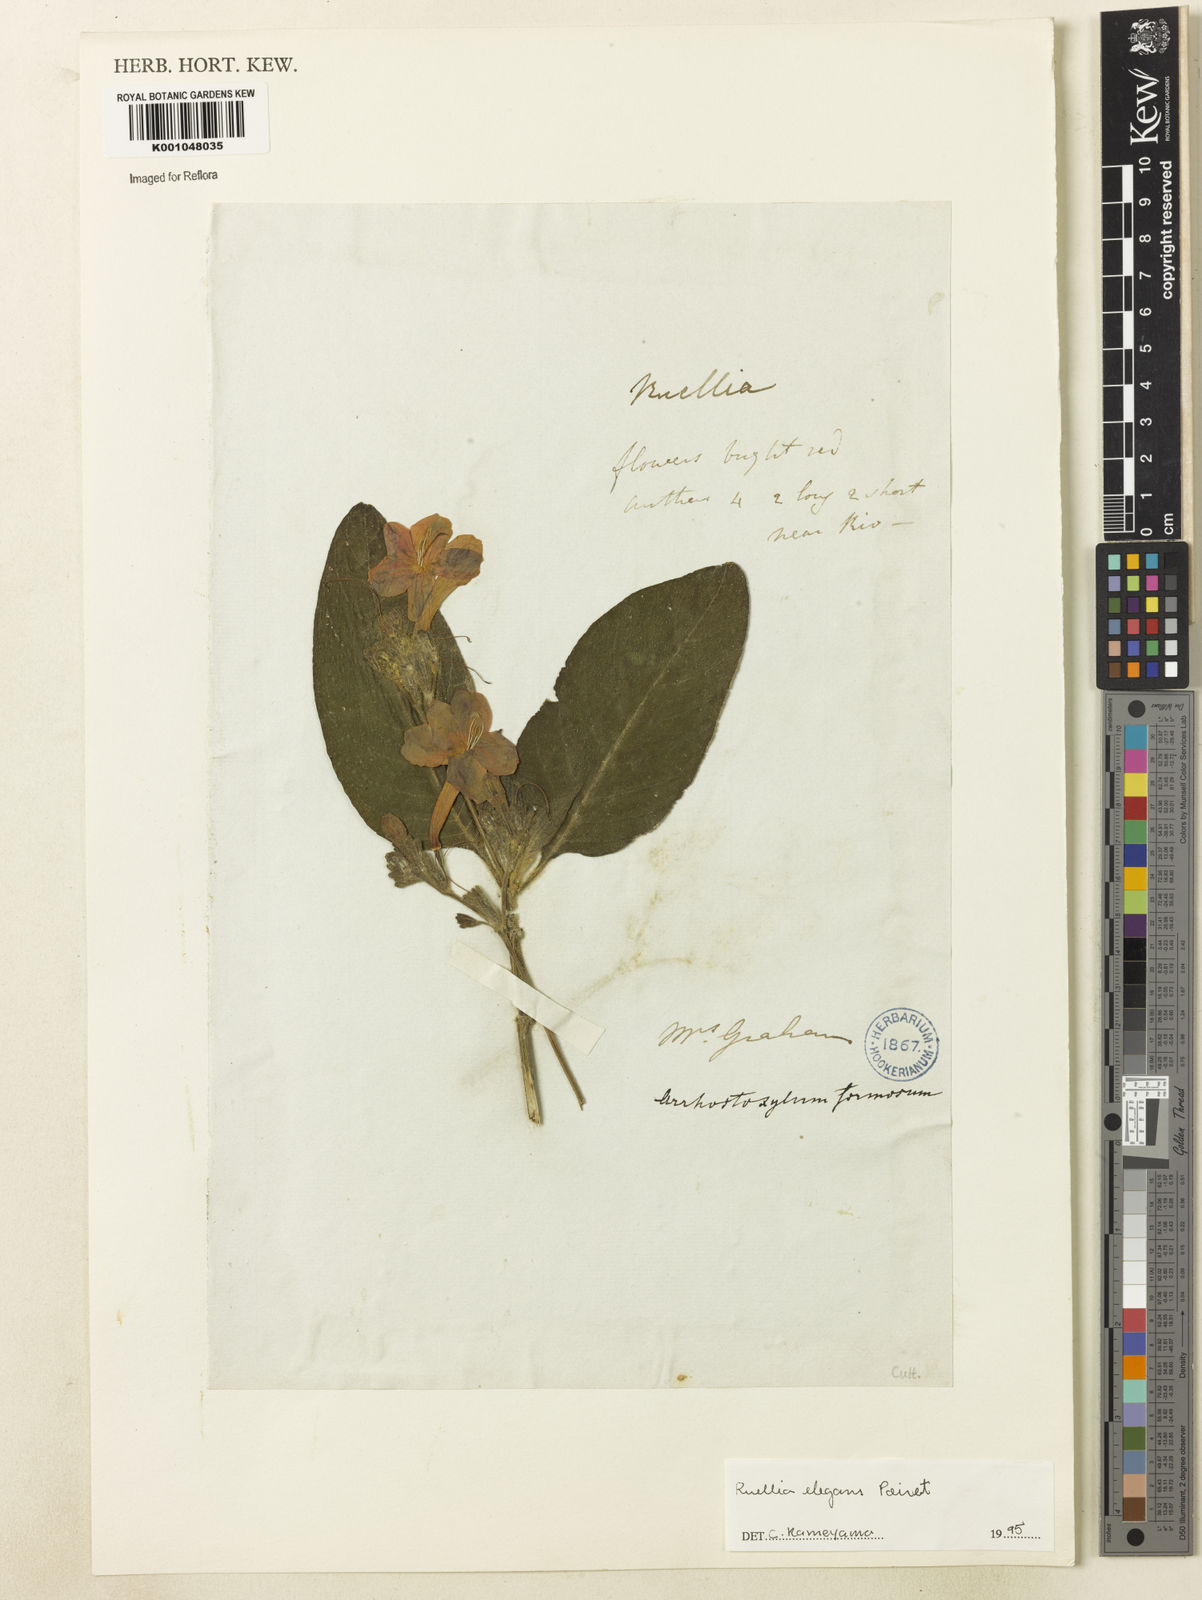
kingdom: Plantae
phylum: Tracheophyta
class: Magnoliopsida
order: Lamiales
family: Acanthaceae
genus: Ruellia
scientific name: Ruellia elegans
